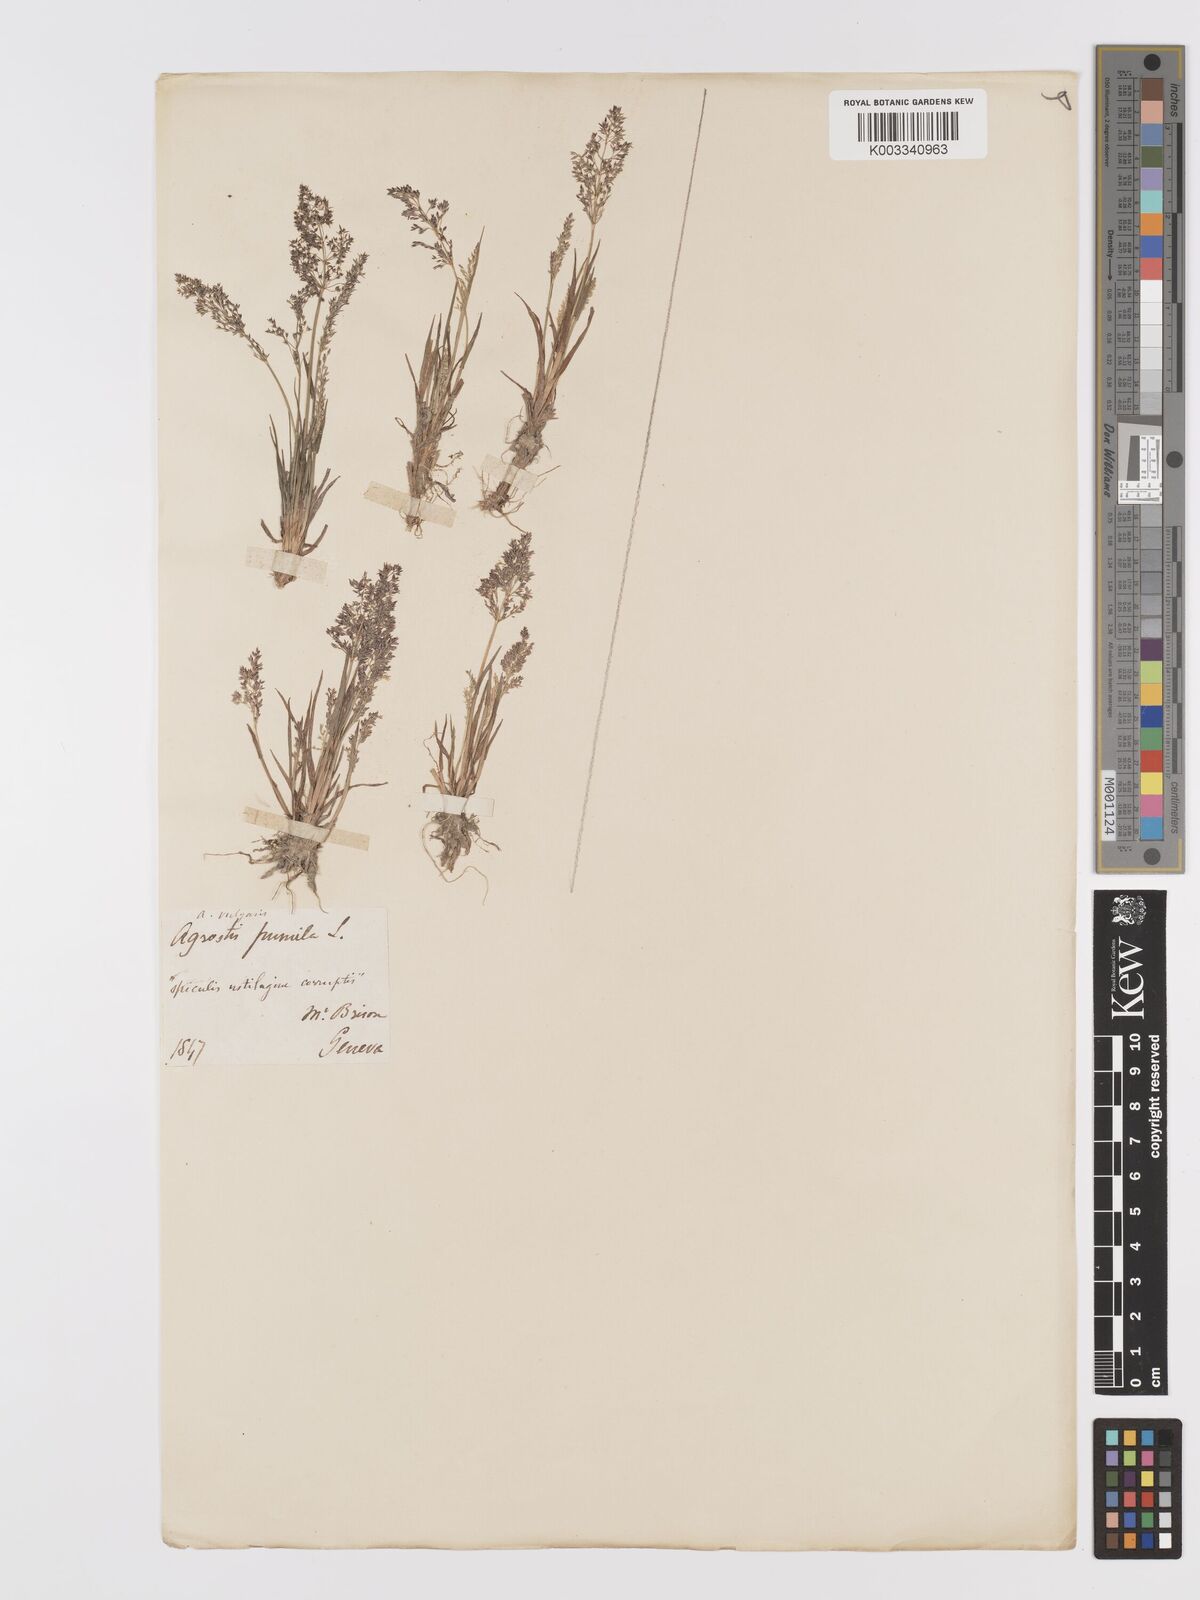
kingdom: Plantae
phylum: Tracheophyta
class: Liliopsida
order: Poales
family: Poaceae
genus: Agrostis
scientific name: Agrostis capillaris
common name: Colonial bentgrass
